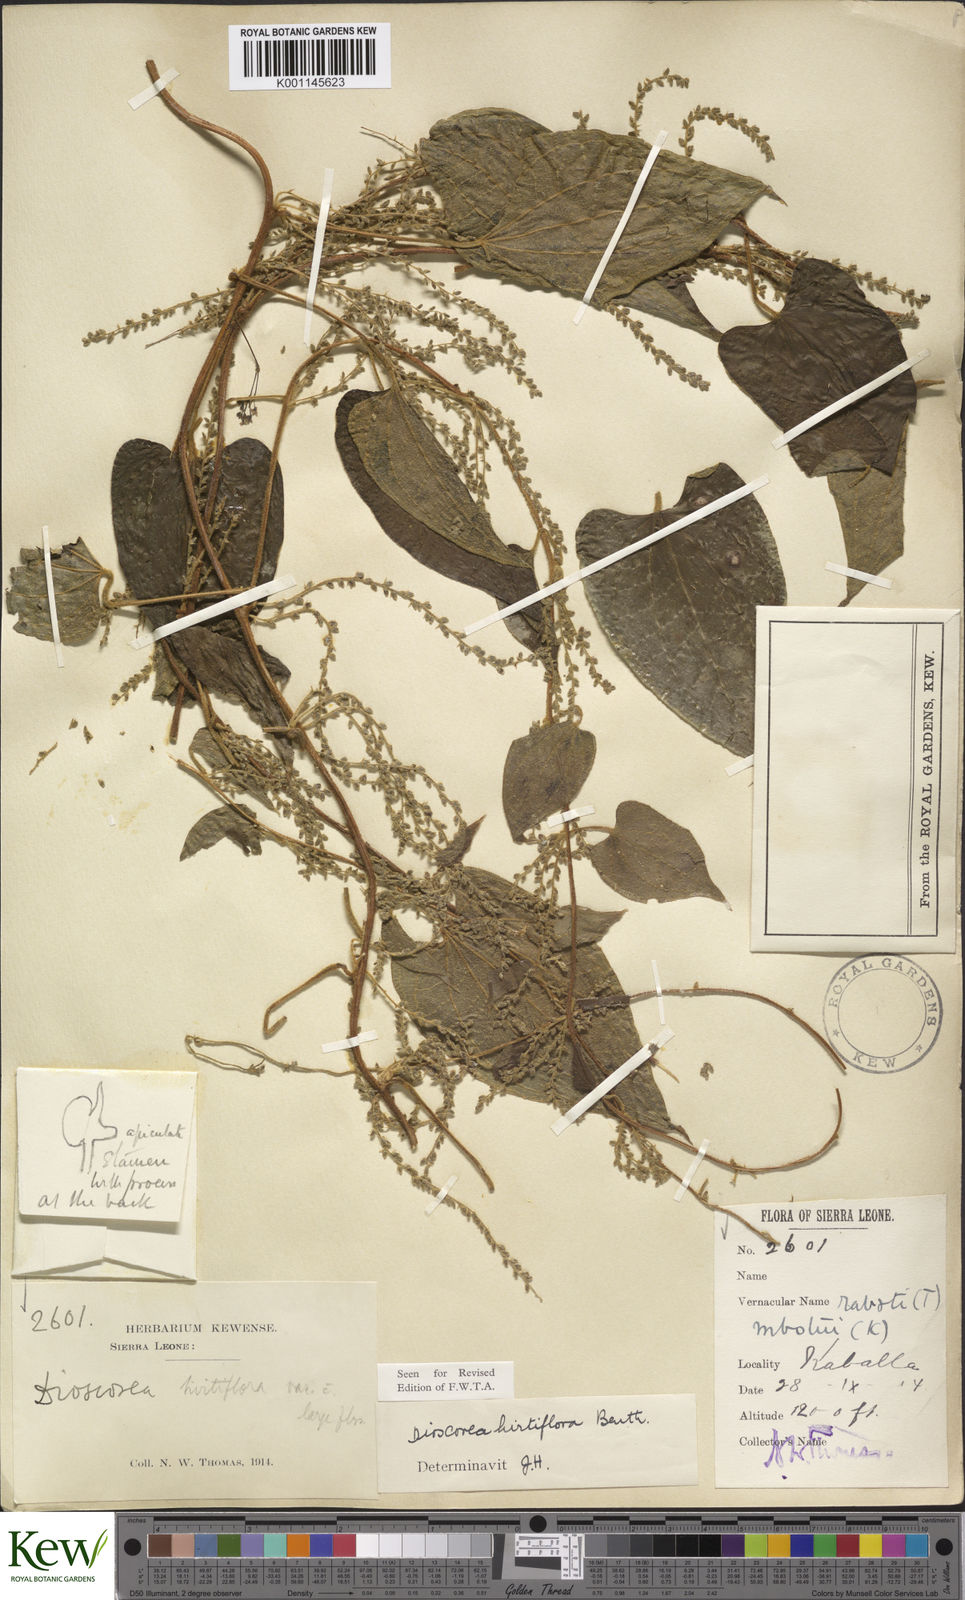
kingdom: Plantae
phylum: Tracheophyta
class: Liliopsida
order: Dioscoreales
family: Dioscoreaceae
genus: Dioscorea
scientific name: Dioscorea hirtiflora
